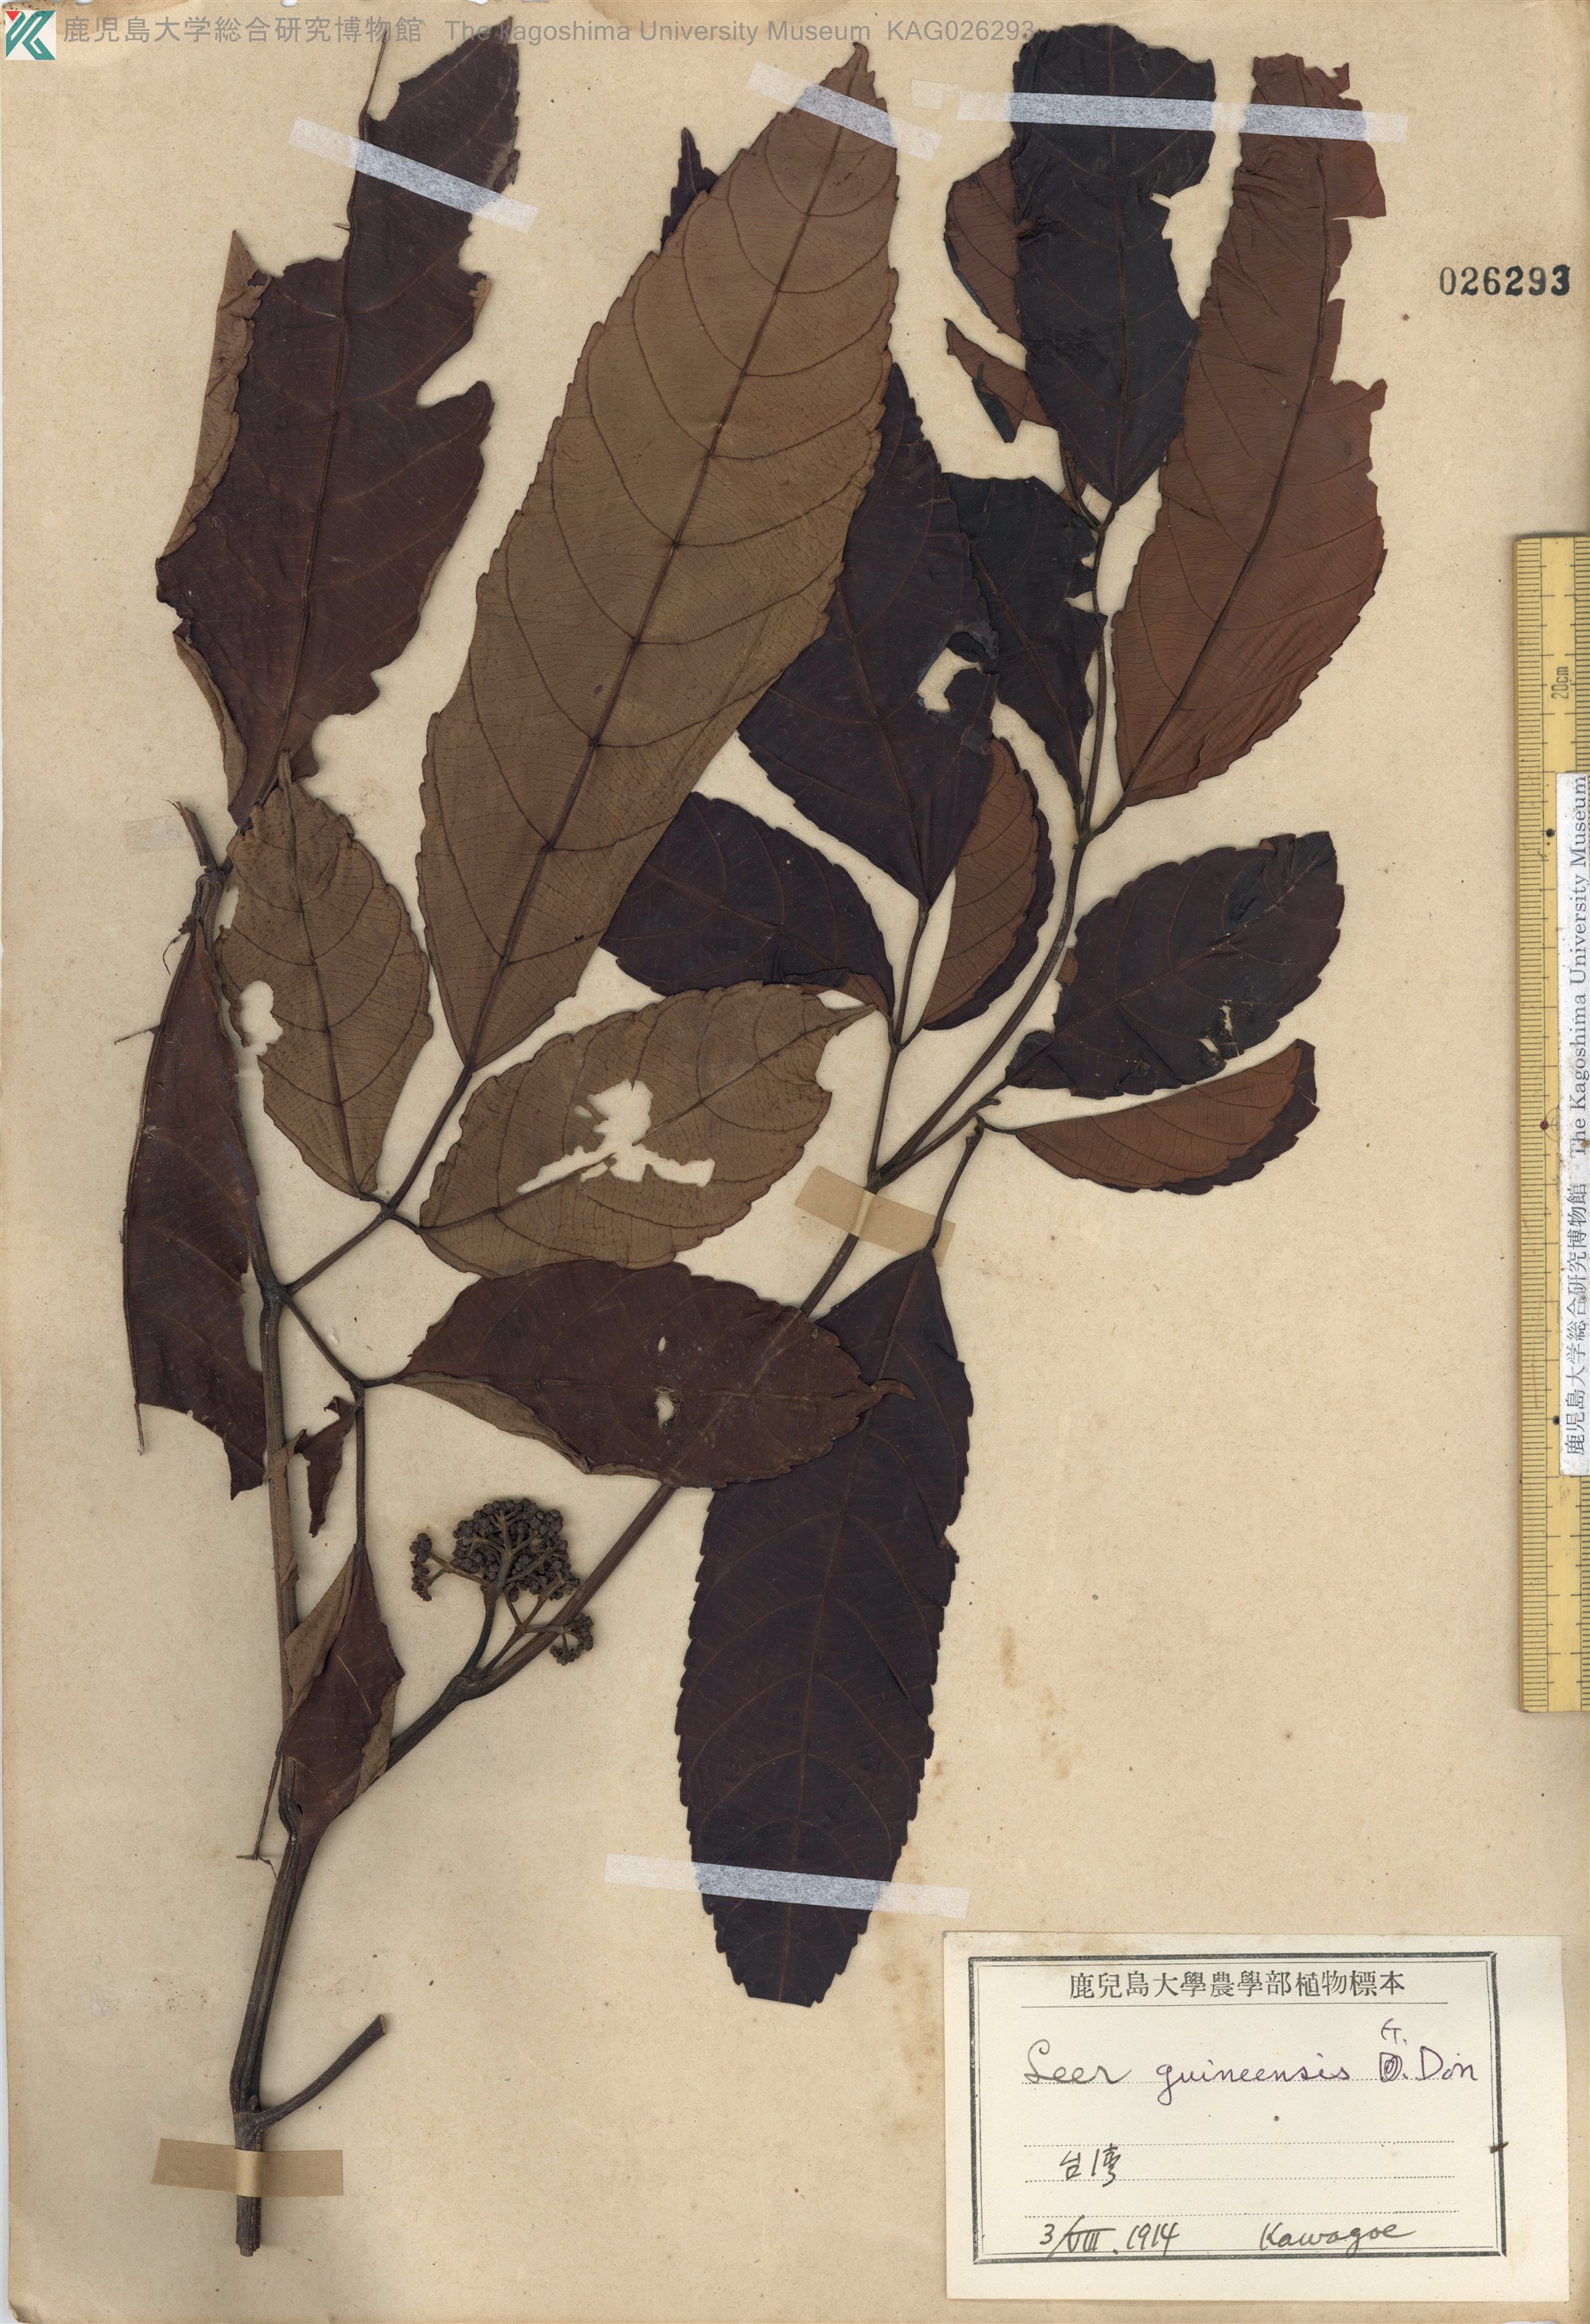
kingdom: Plantae
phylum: Tracheophyta
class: Magnoliopsida
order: Vitales
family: Vitaceae
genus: Leea
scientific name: Leea guineensis
